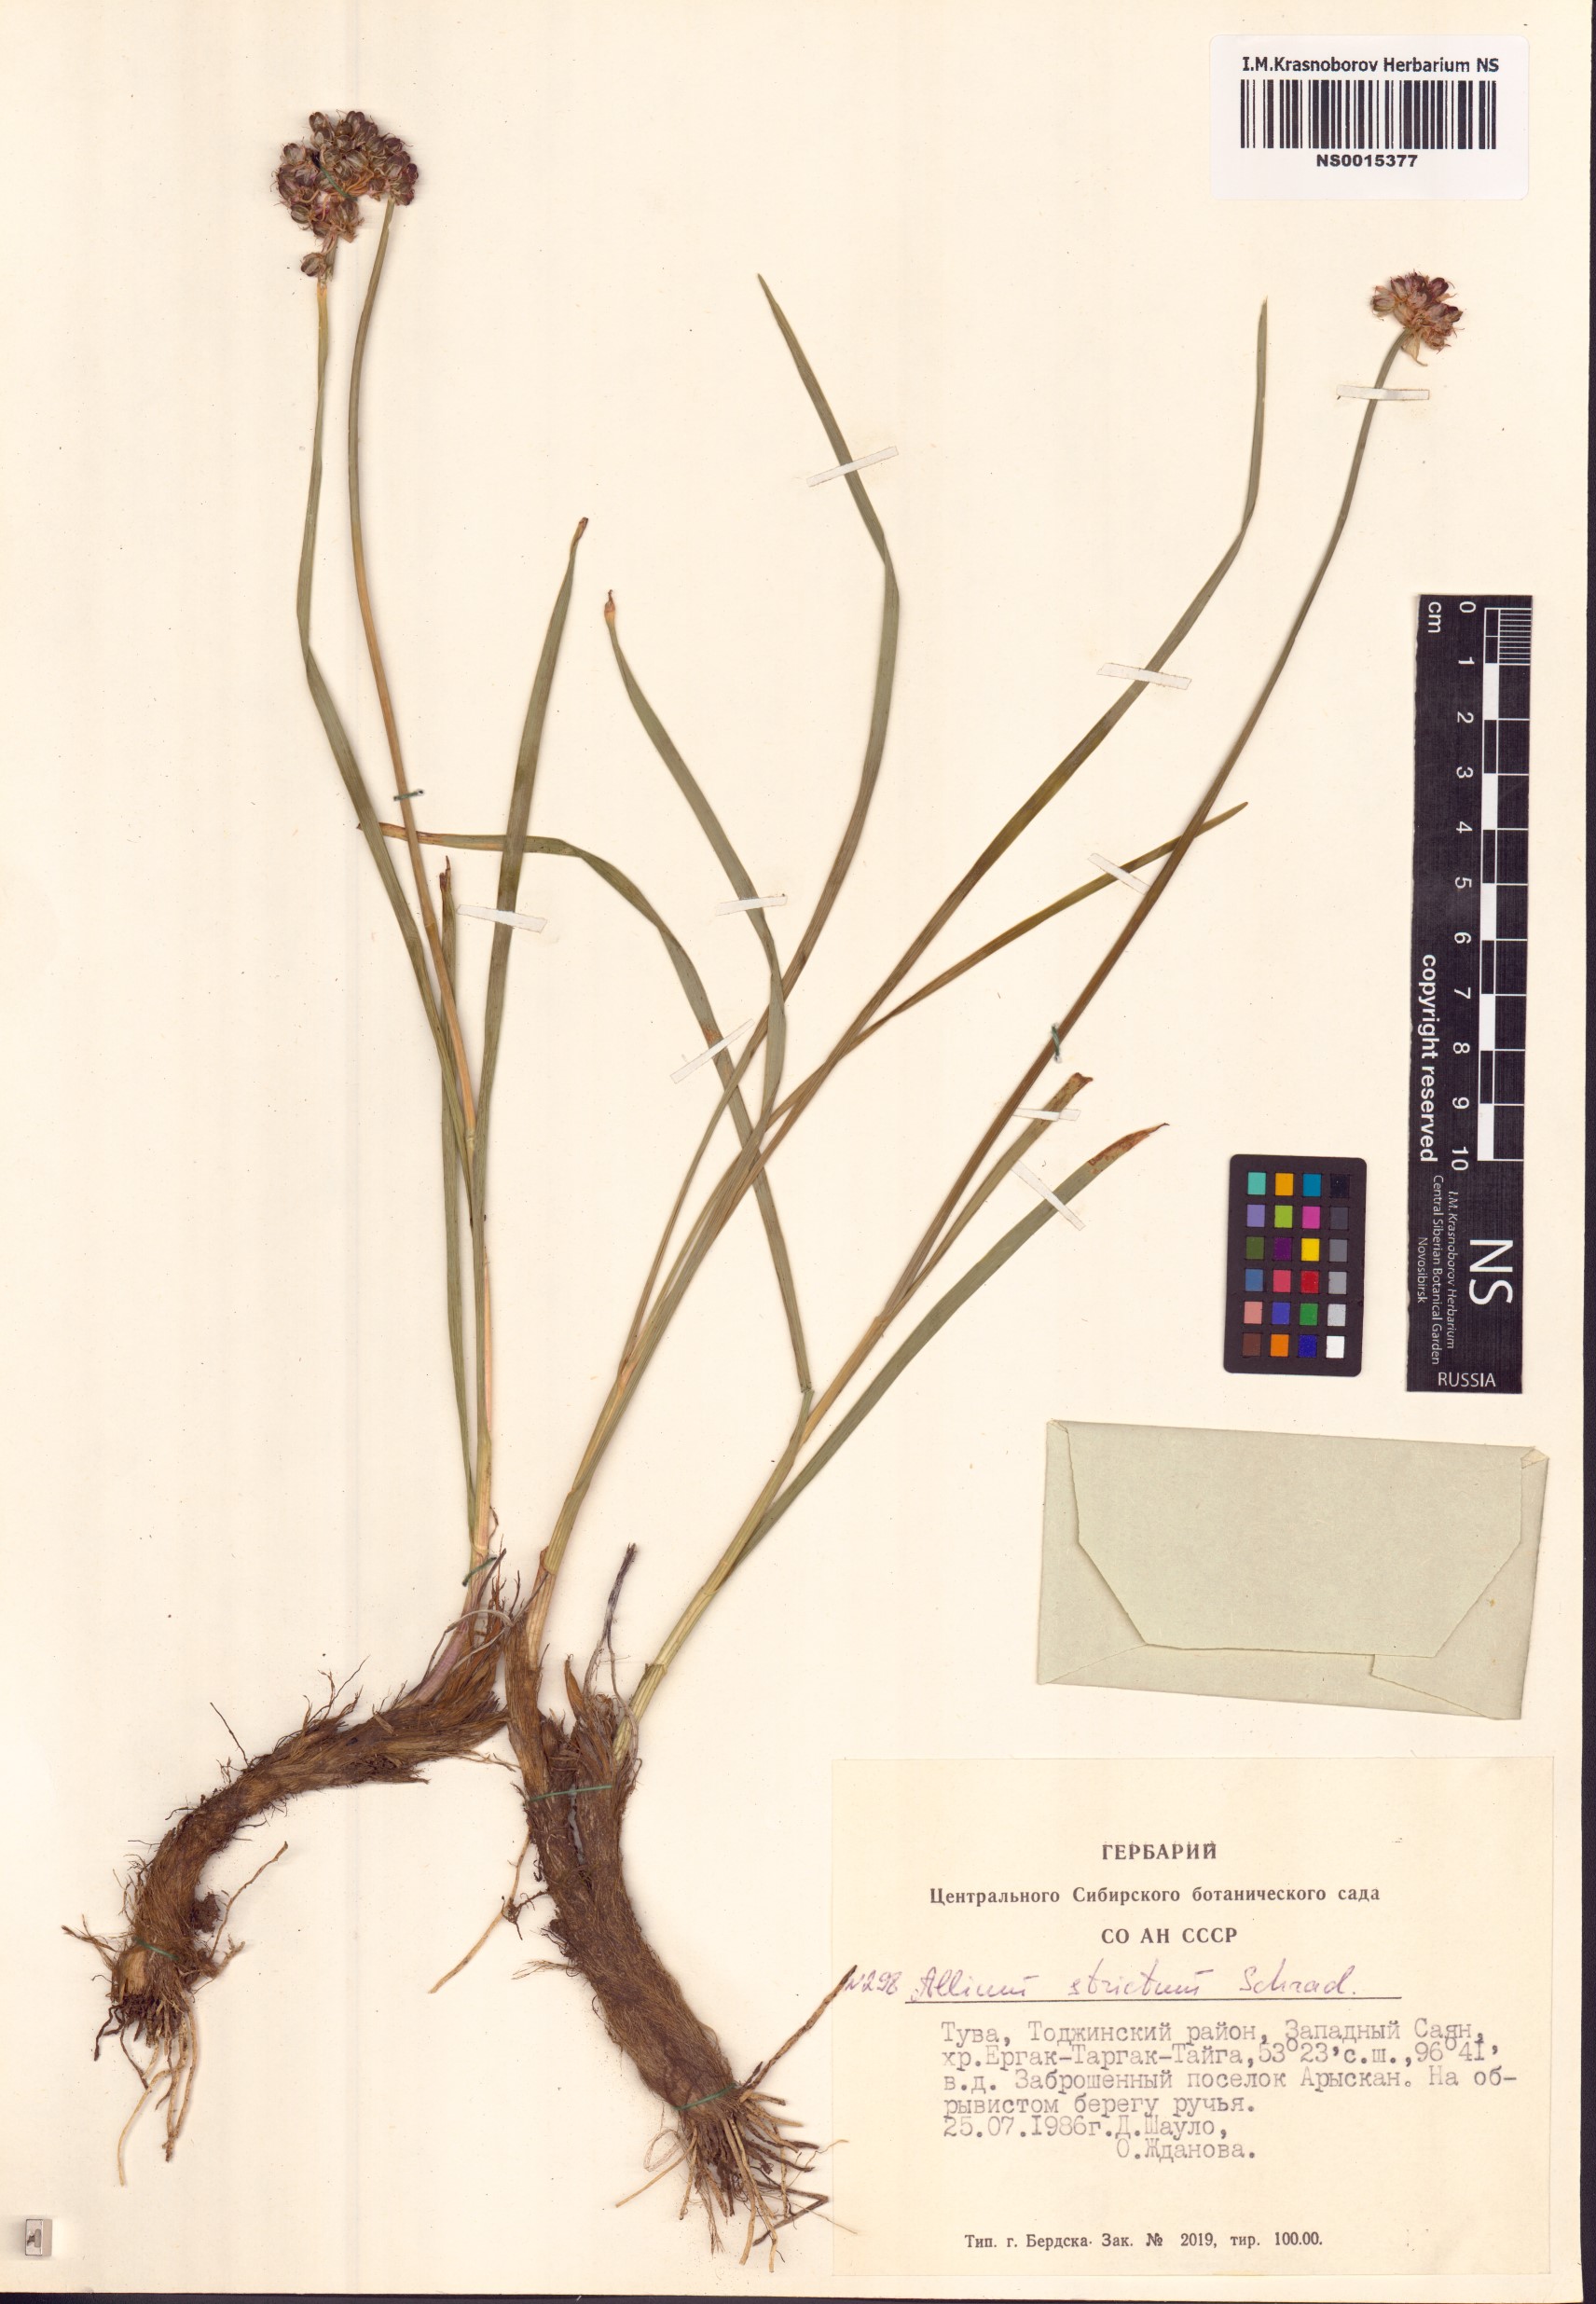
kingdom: Plantae
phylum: Tracheophyta
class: Liliopsida
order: Asparagales
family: Amaryllidaceae
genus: Allium
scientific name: Allium strictum
